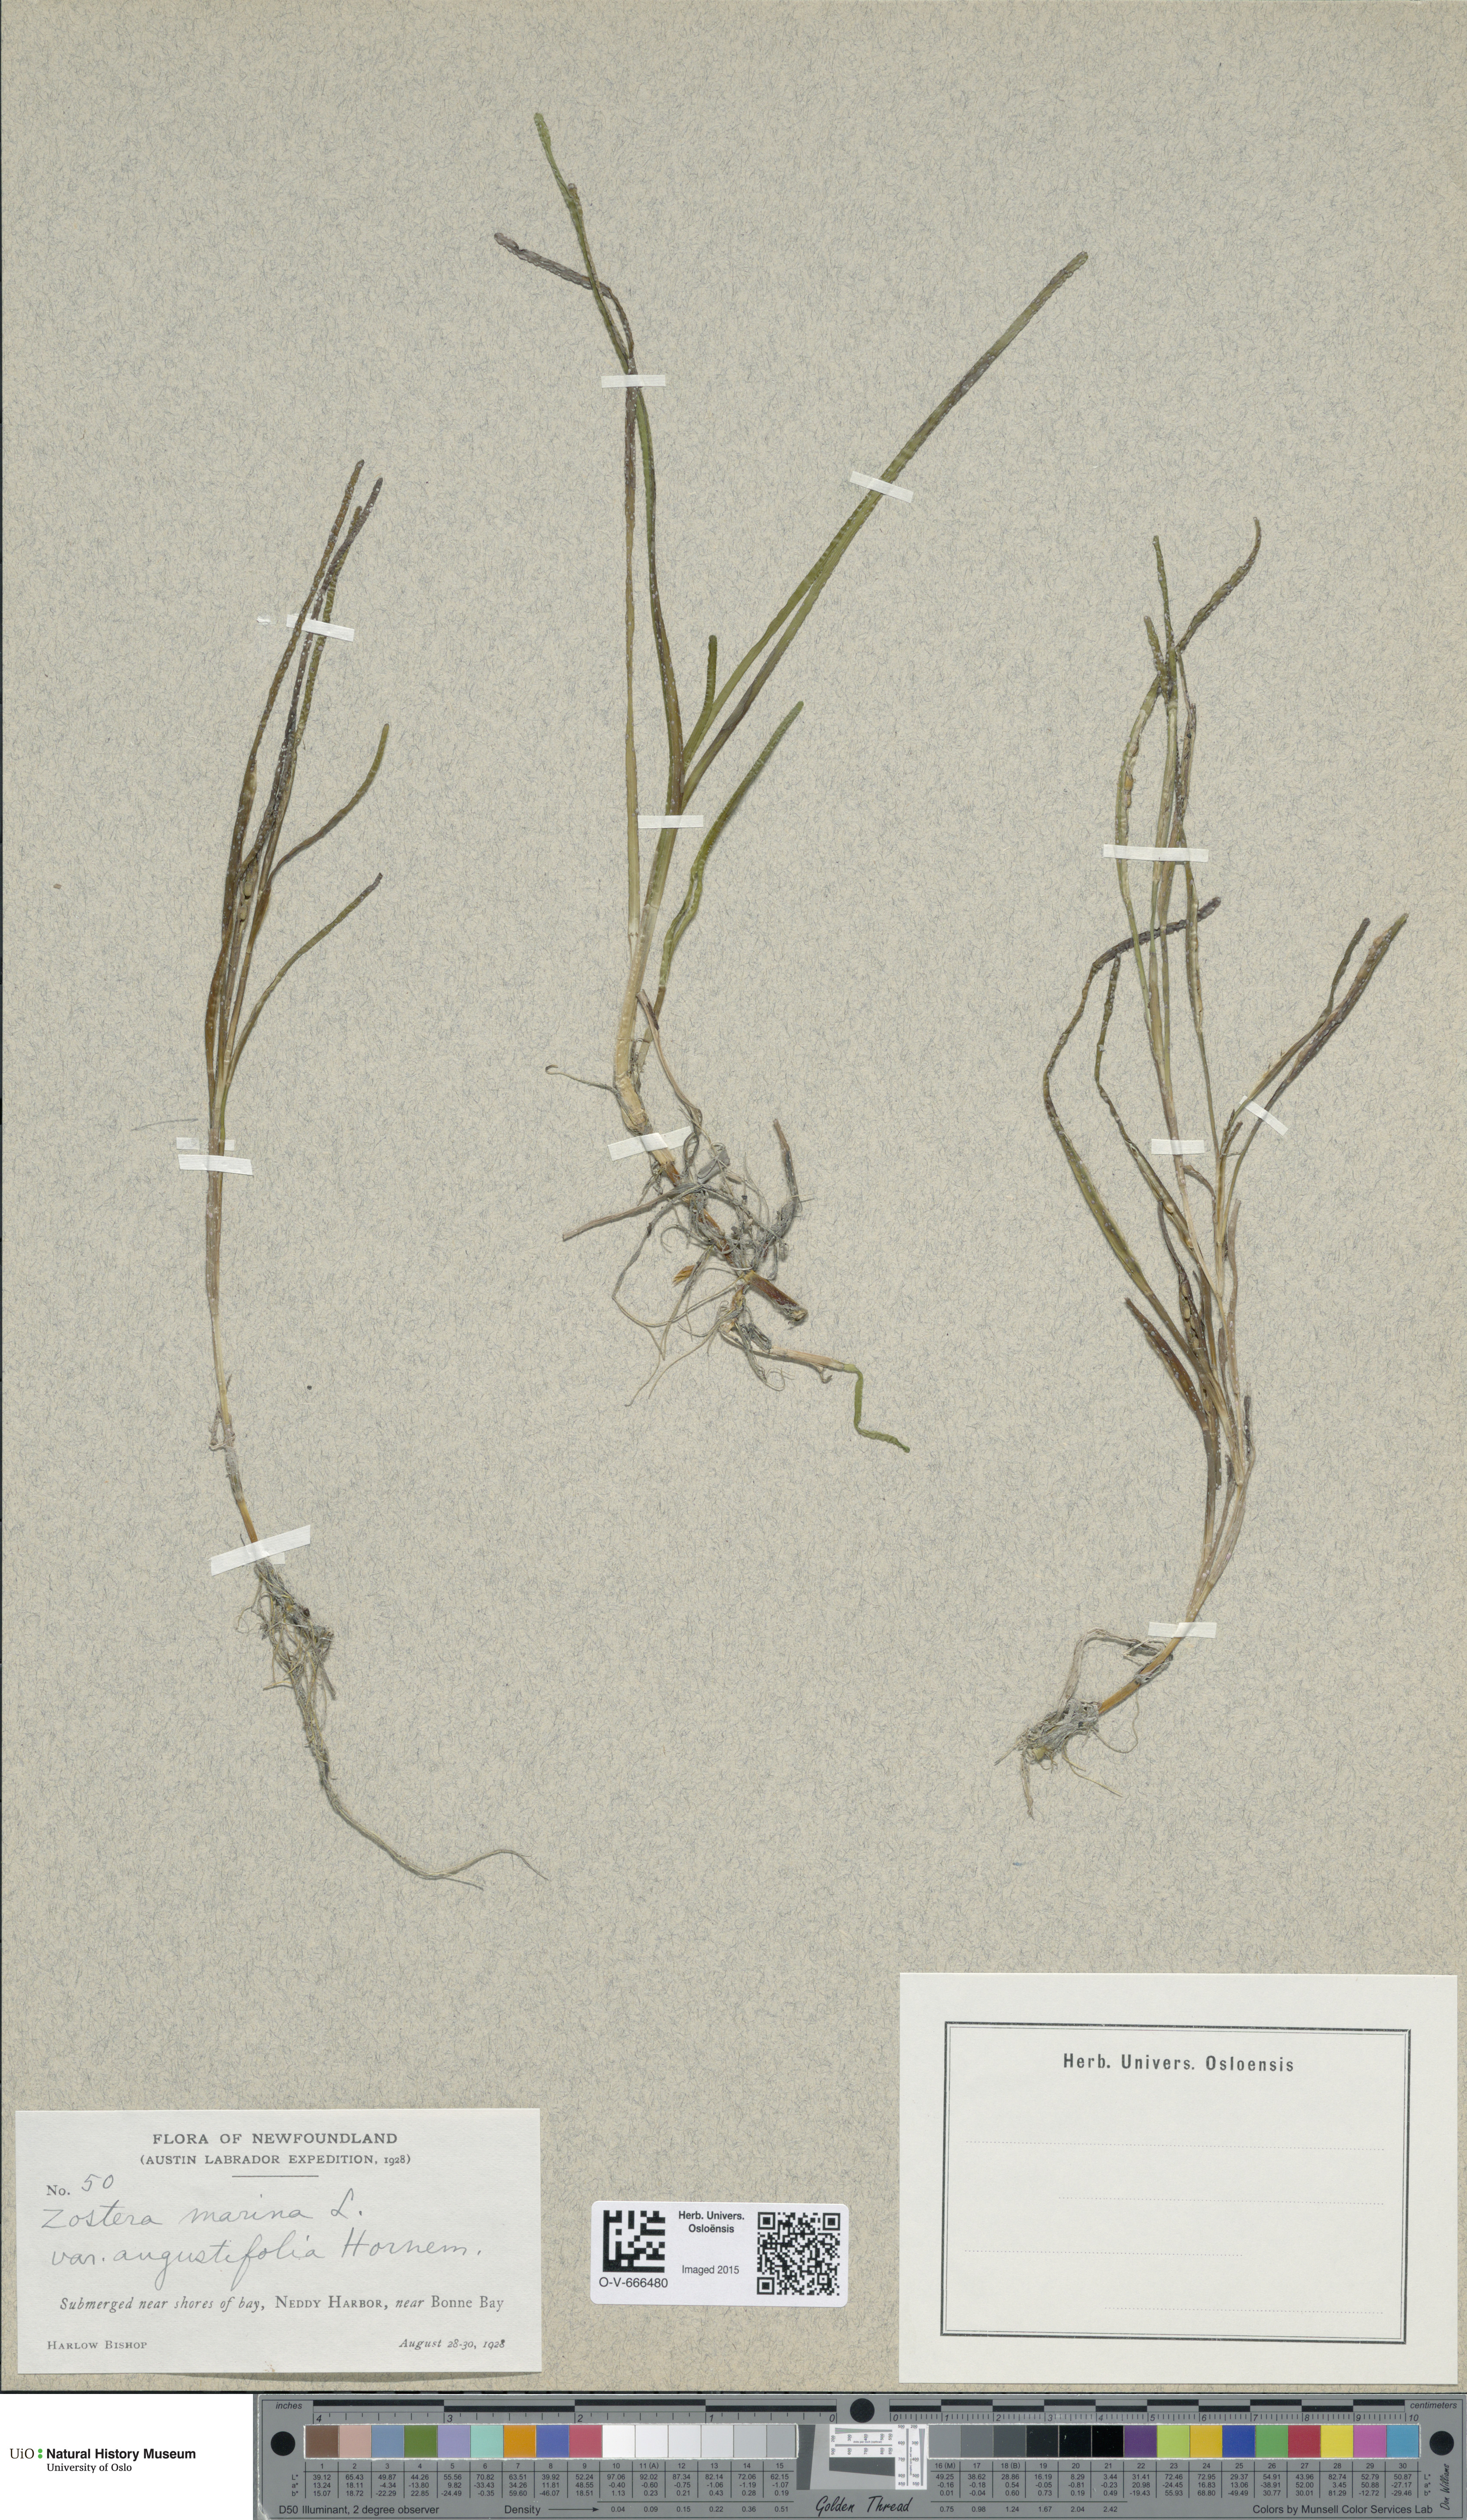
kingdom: Plantae
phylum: Tracheophyta
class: Liliopsida
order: Alismatales
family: Zosteraceae
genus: Zostera
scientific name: Zostera noltii
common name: Dwarf eelgrass
